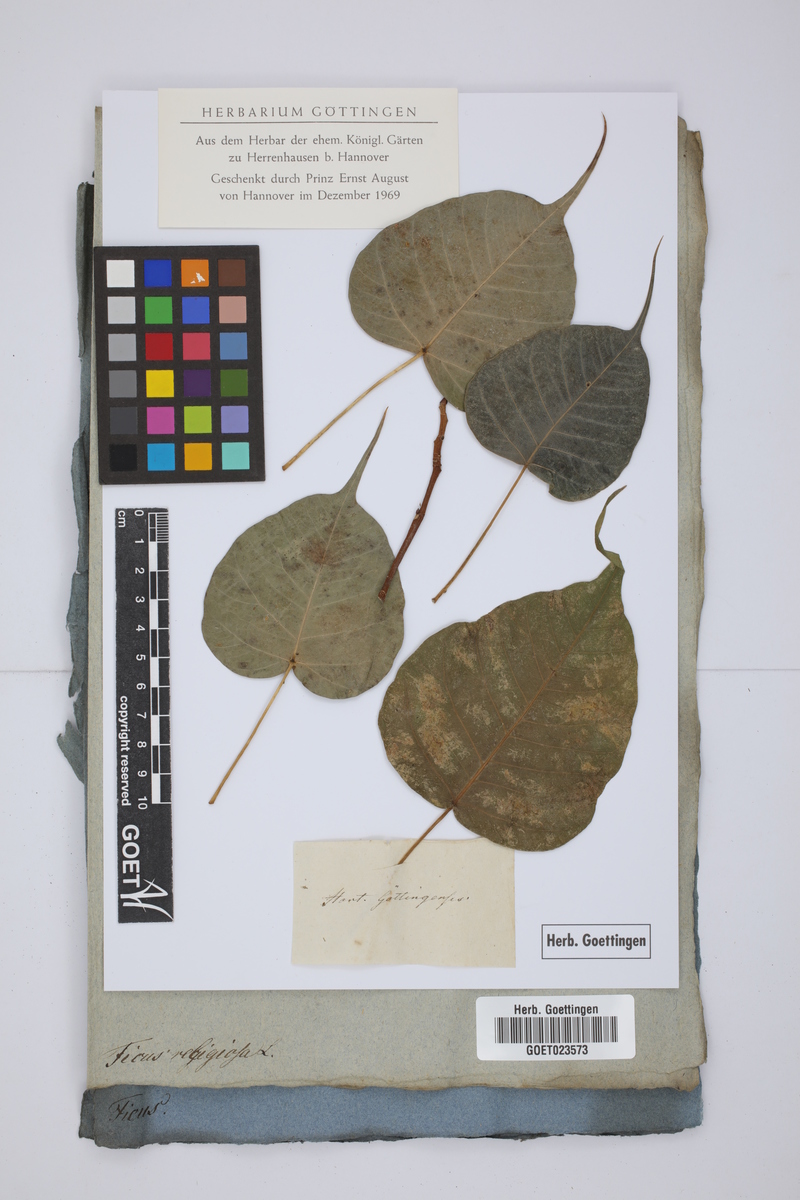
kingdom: Plantae
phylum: Tracheophyta
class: Magnoliopsida
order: Rosales
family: Moraceae
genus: Ficus
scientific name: Ficus religiosa
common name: Bodhi tree
